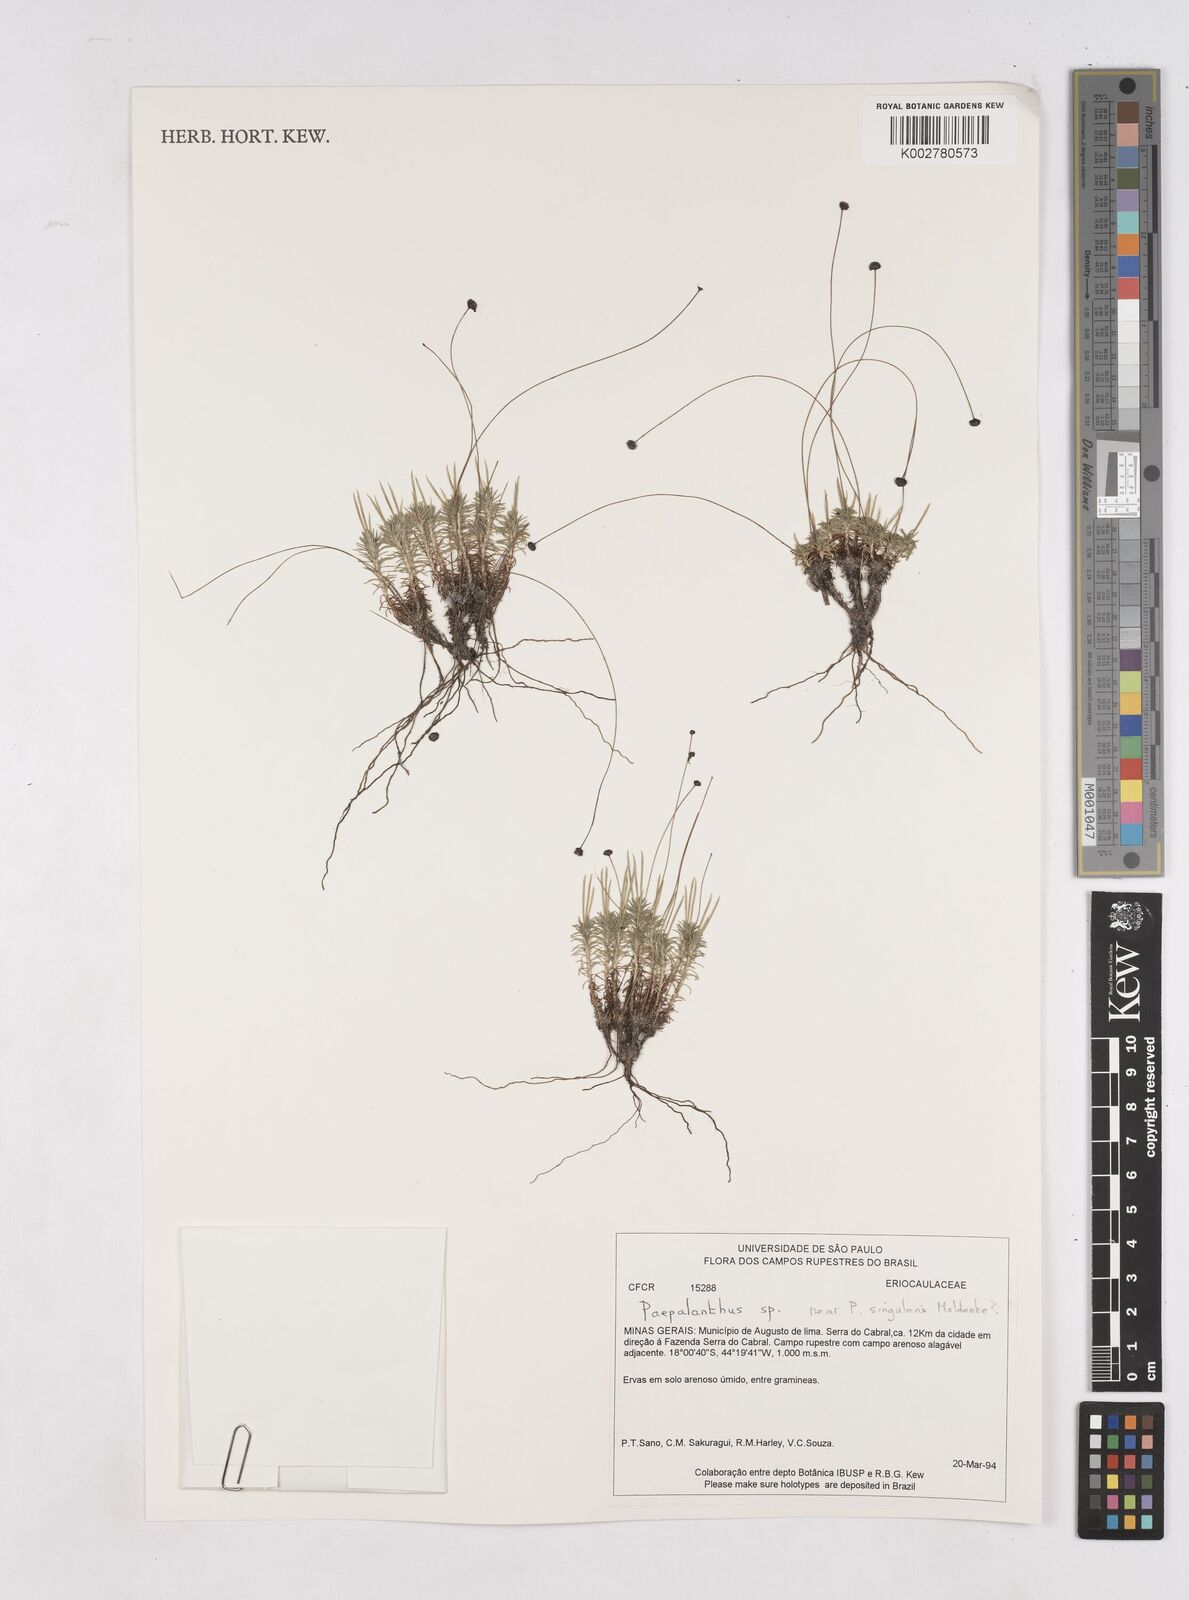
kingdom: Plantae
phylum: Tracheophyta
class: Liliopsida
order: Poales
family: Eriocaulaceae
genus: Paepalanthus
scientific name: Paepalanthus polytrichoides
